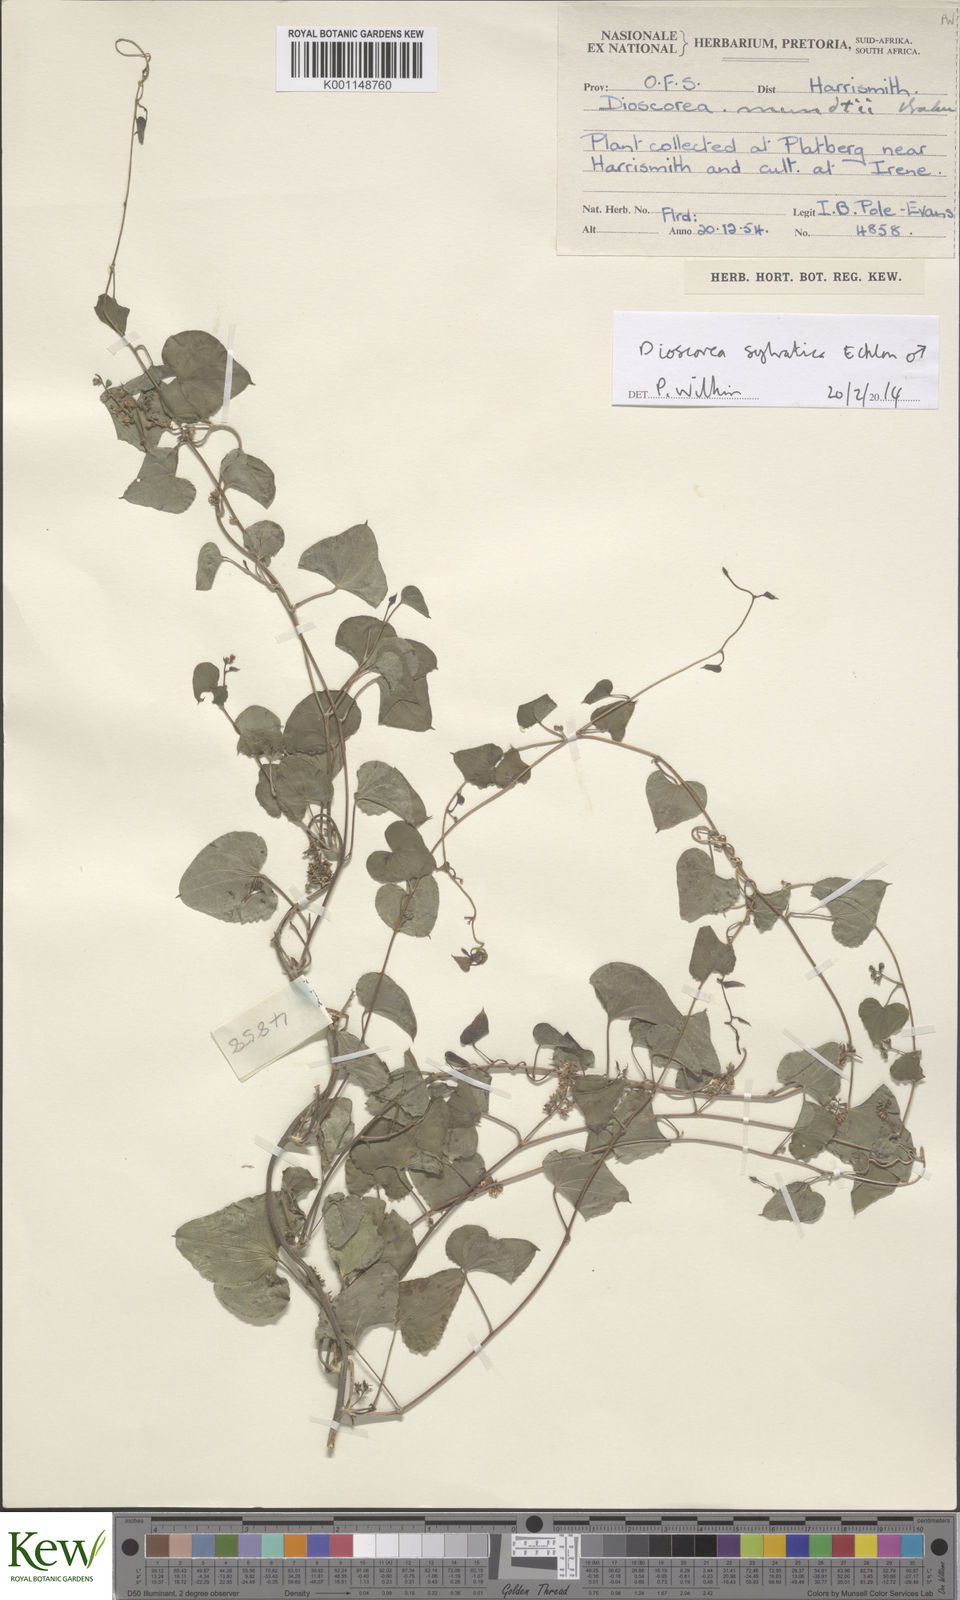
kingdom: Plantae
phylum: Tracheophyta
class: Liliopsida
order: Dioscoreales
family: Dioscoreaceae
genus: Dioscorea
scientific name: Dioscorea sylvatica
